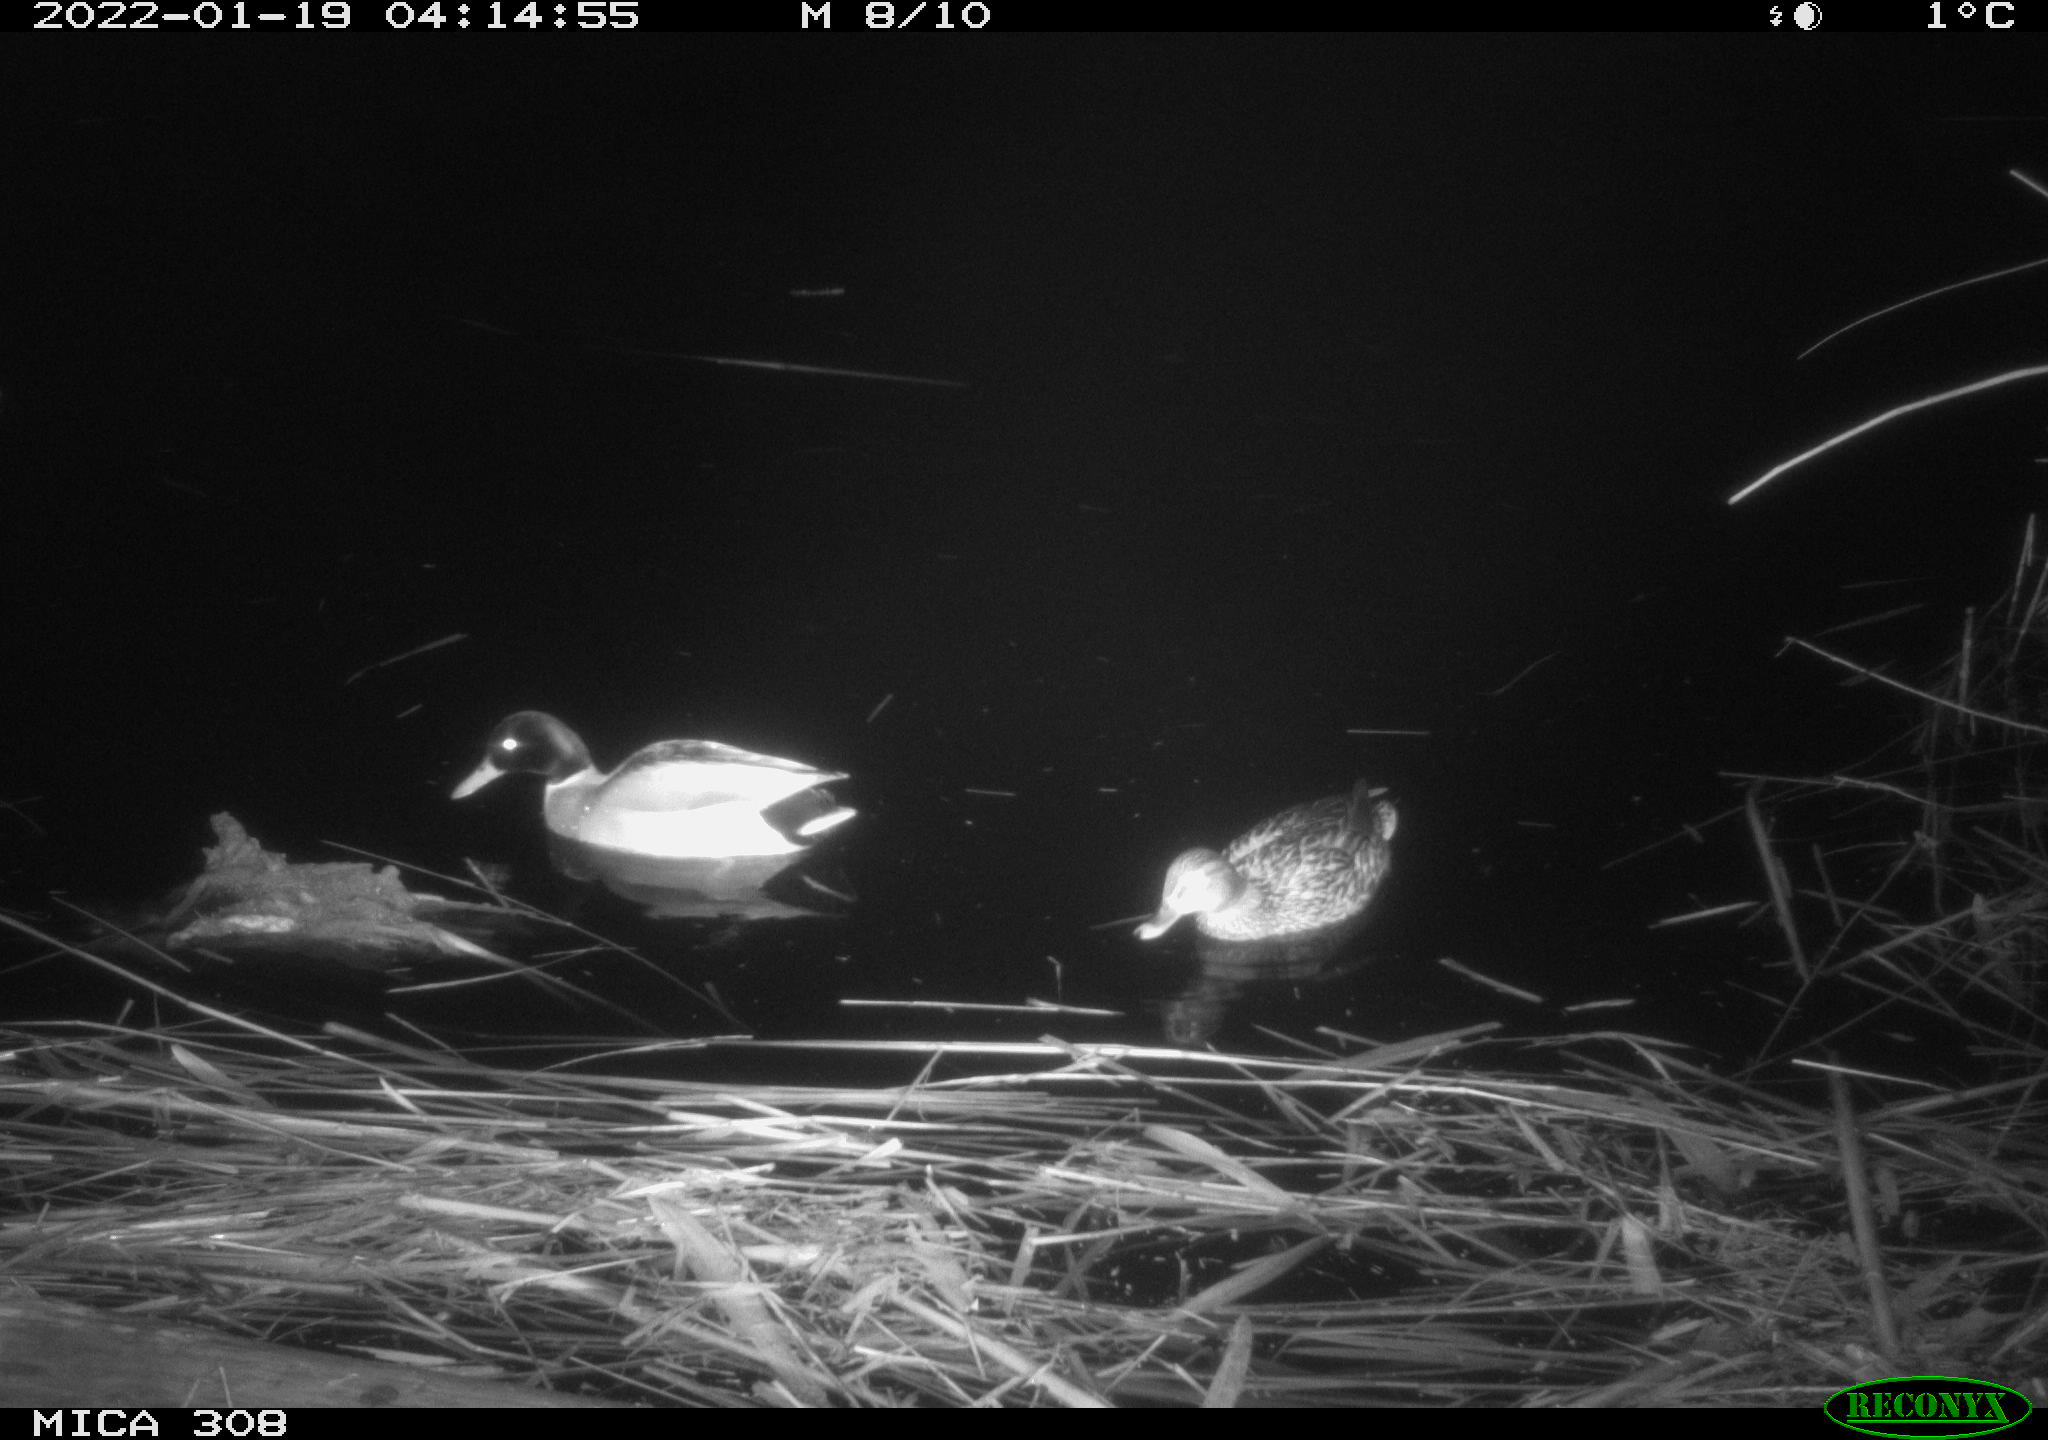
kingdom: Animalia
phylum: Chordata
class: Aves
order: Anseriformes
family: Anatidae
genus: Anas
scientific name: Anas
